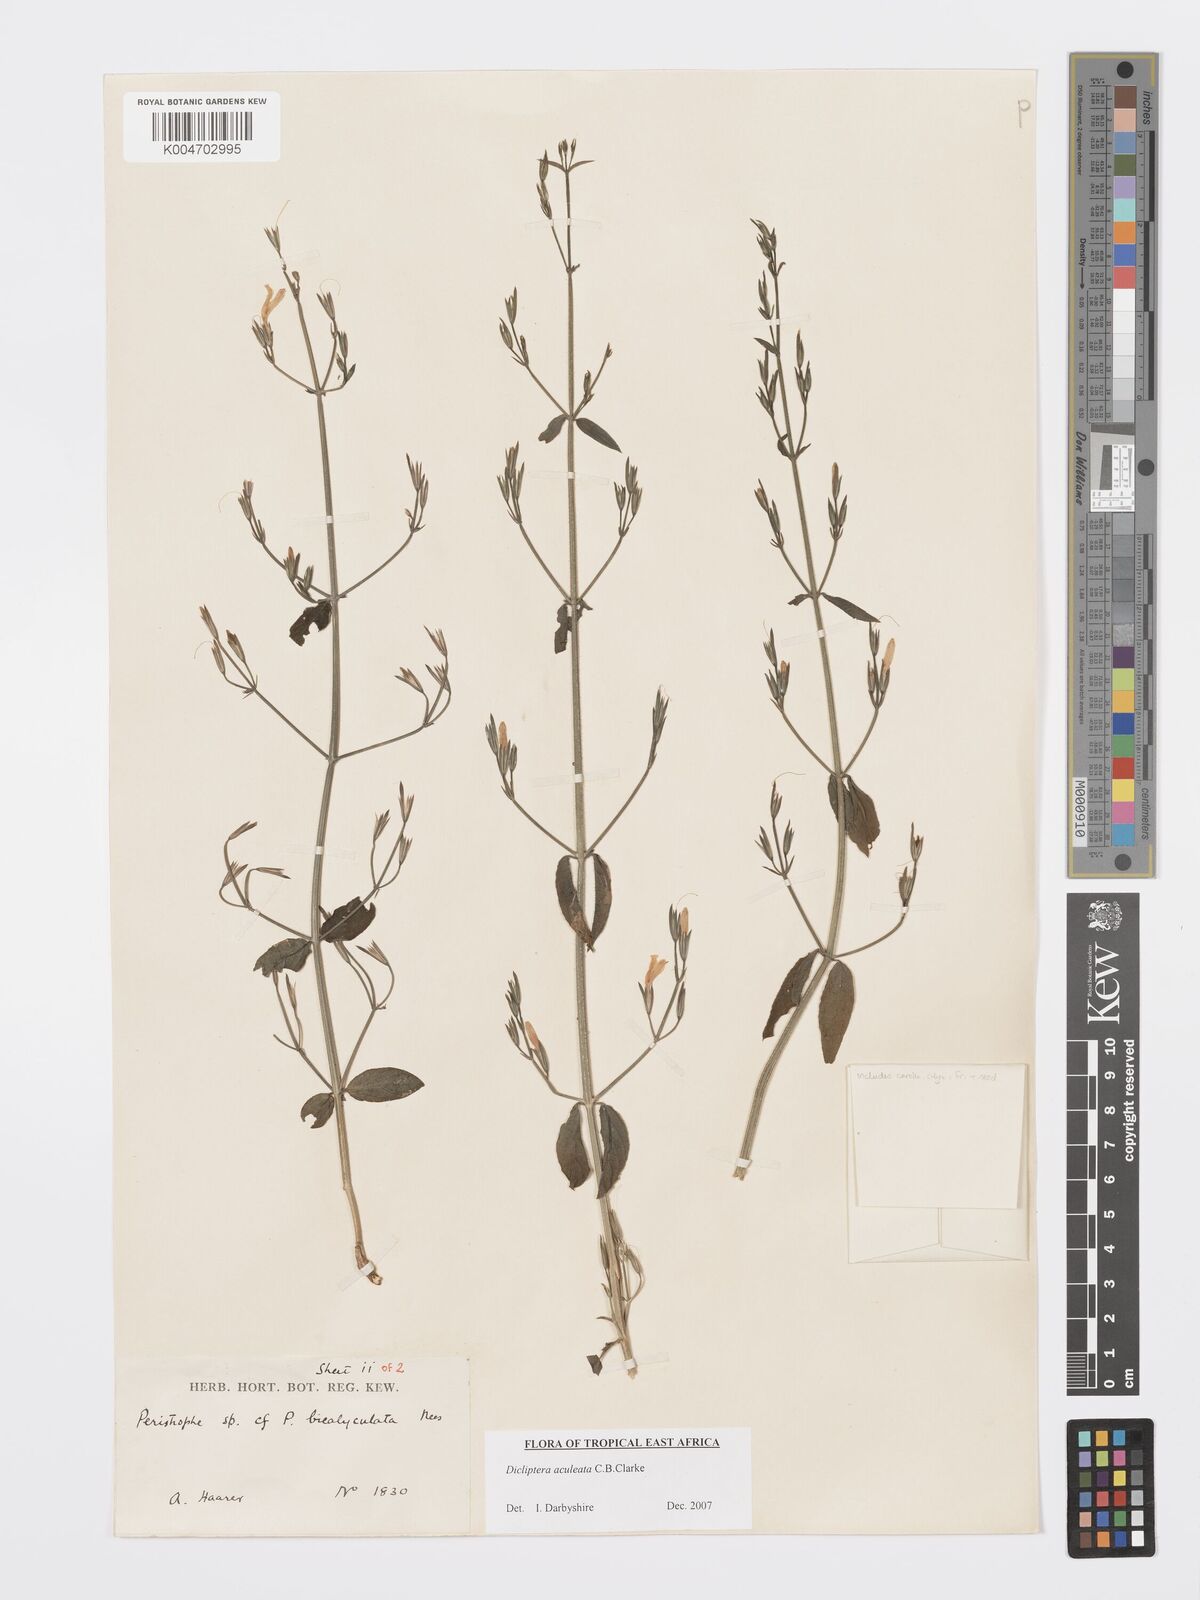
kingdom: Plantae
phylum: Tracheophyta
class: Magnoliopsida
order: Lamiales
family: Acanthaceae
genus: Dicliptera
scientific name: Dicliptera hensii
